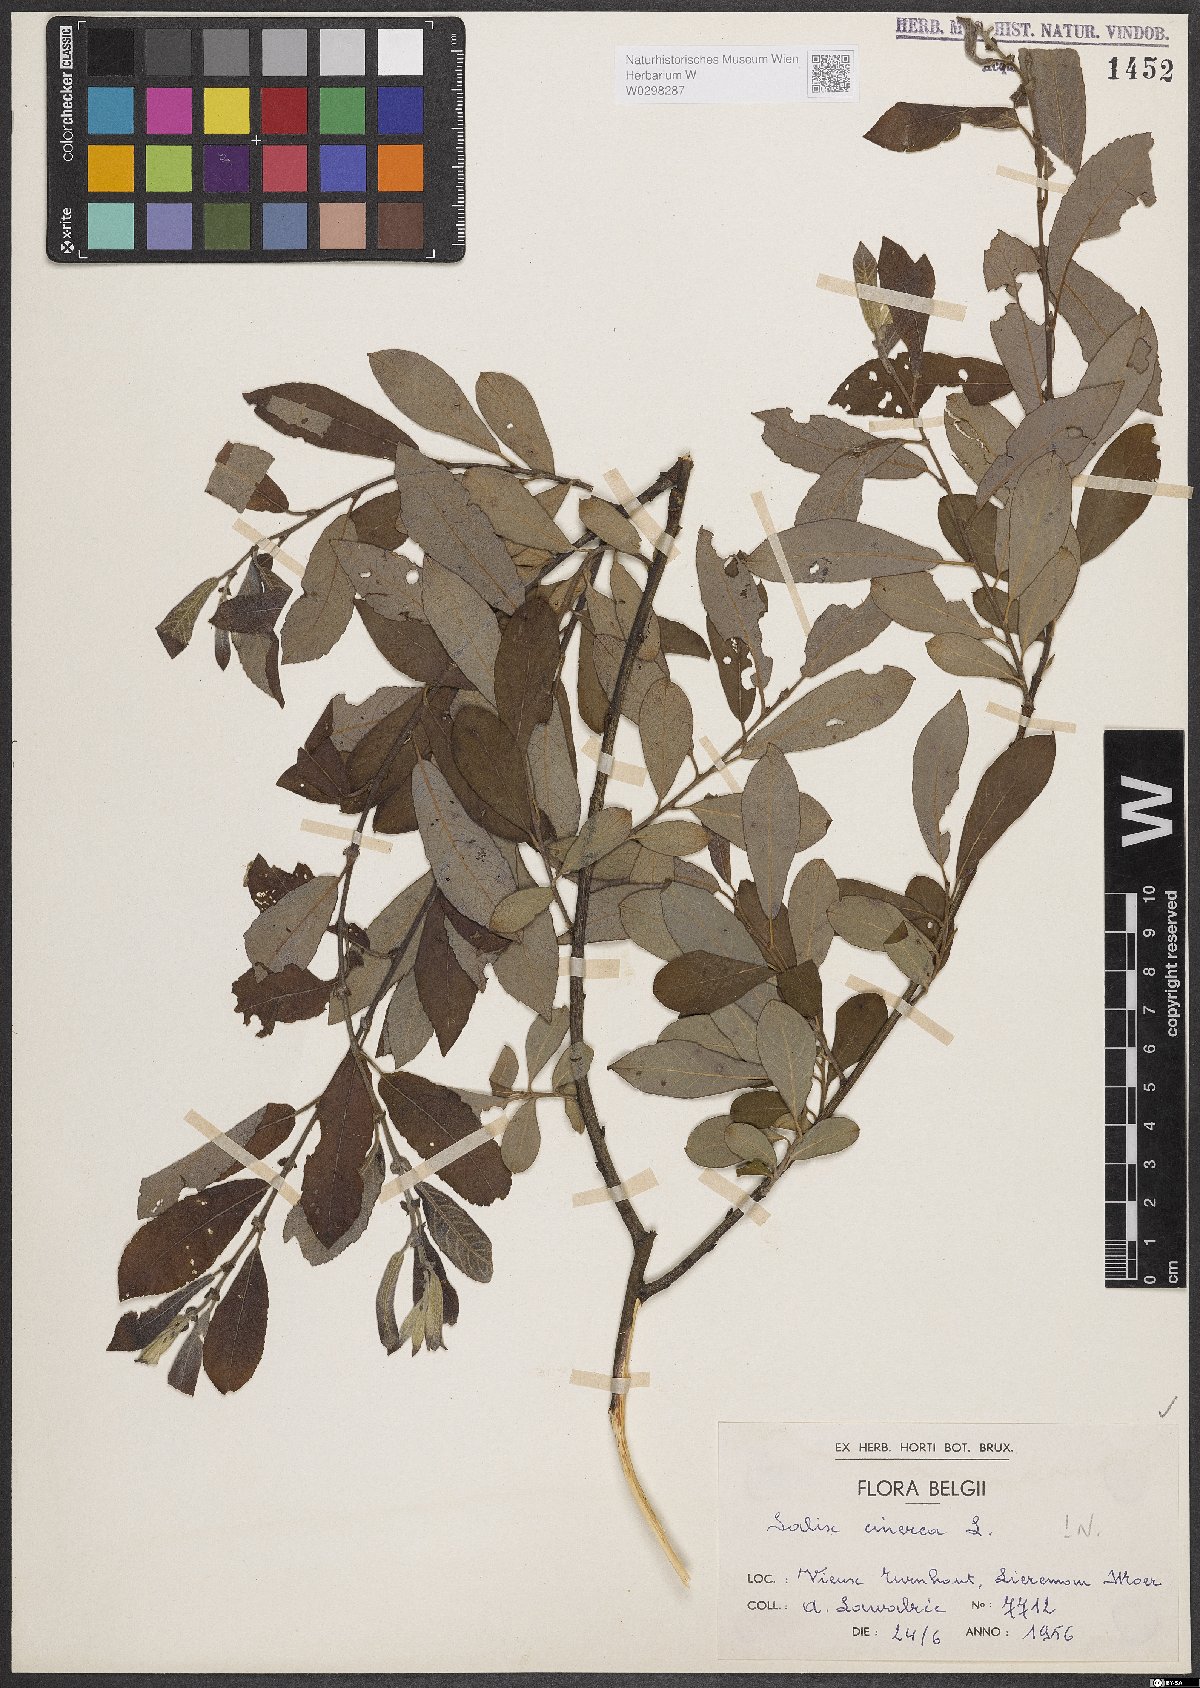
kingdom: Plantae
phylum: Tracheophyta
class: Magnoliopsida
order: Malpighiales
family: Salicaceae
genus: Salix
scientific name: Salix cinerea
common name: Common sallow
